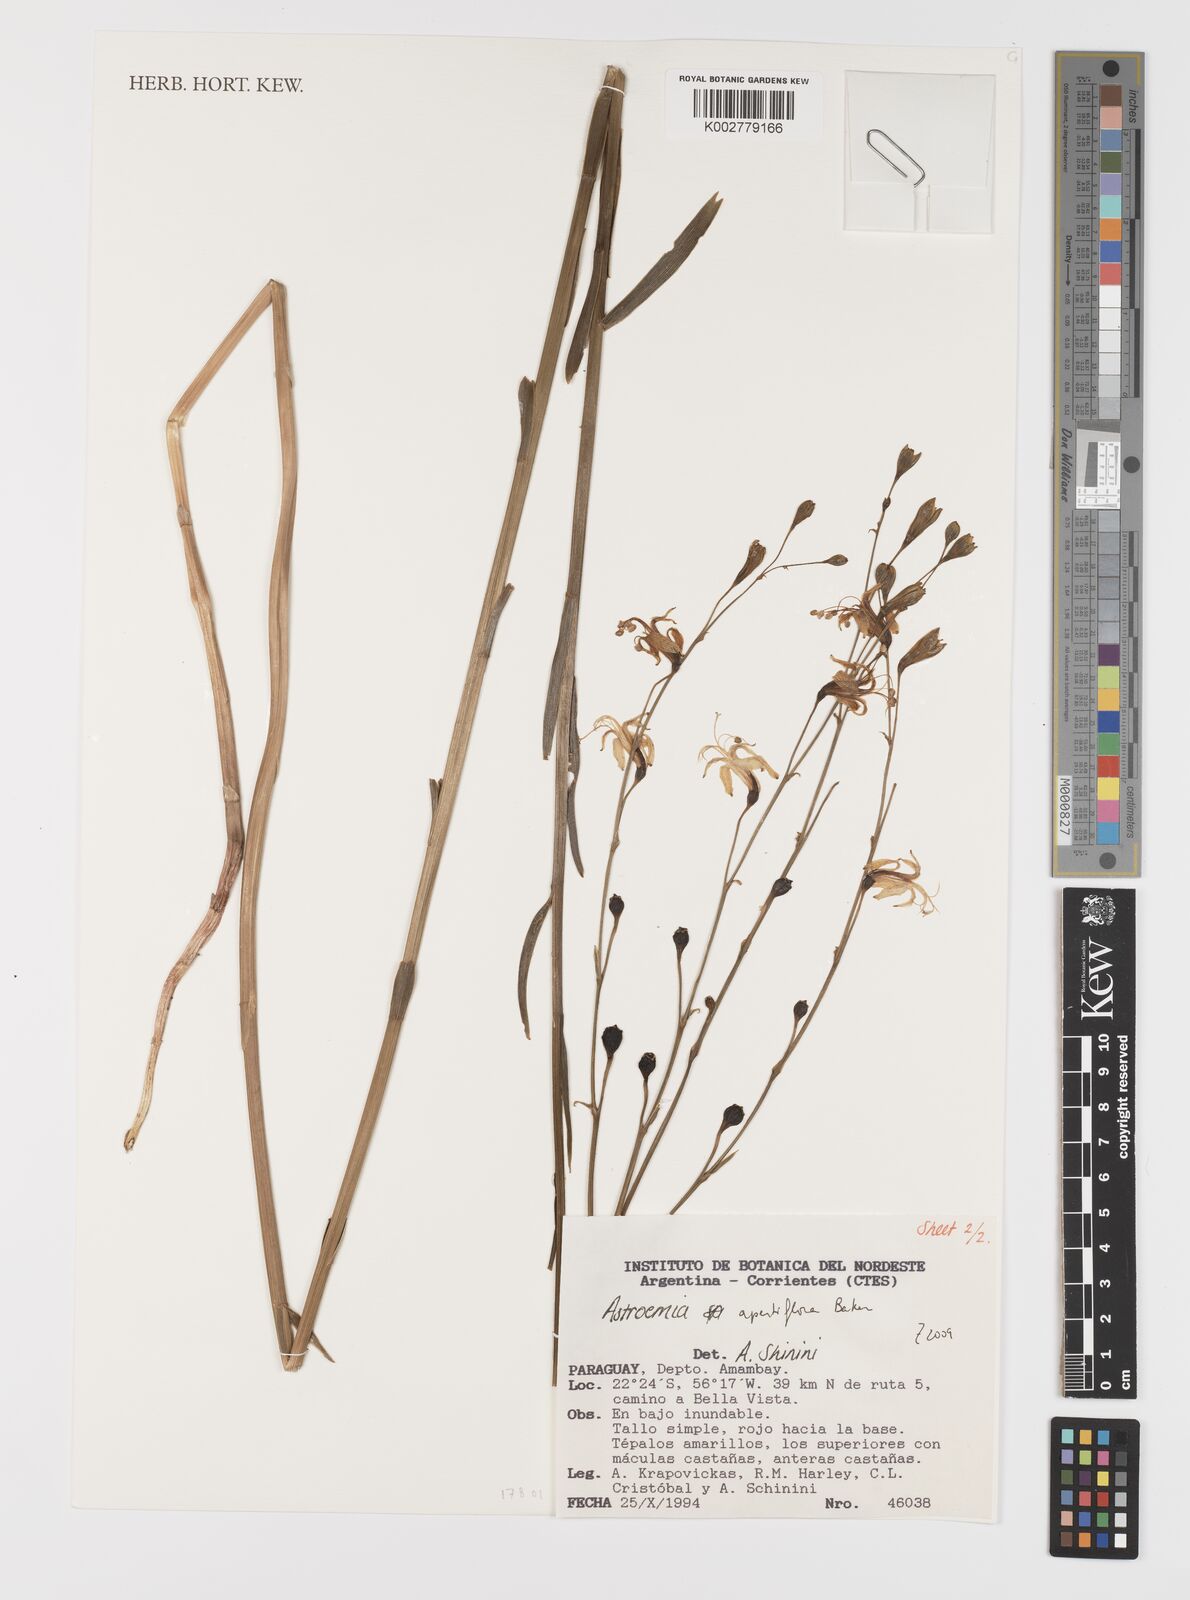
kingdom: Plantae
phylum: Tracheophyta
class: Liliopsida
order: Liliales
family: Alstroemeriaceae
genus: Alstroemeria
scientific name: Alstroemeria apertiflora
